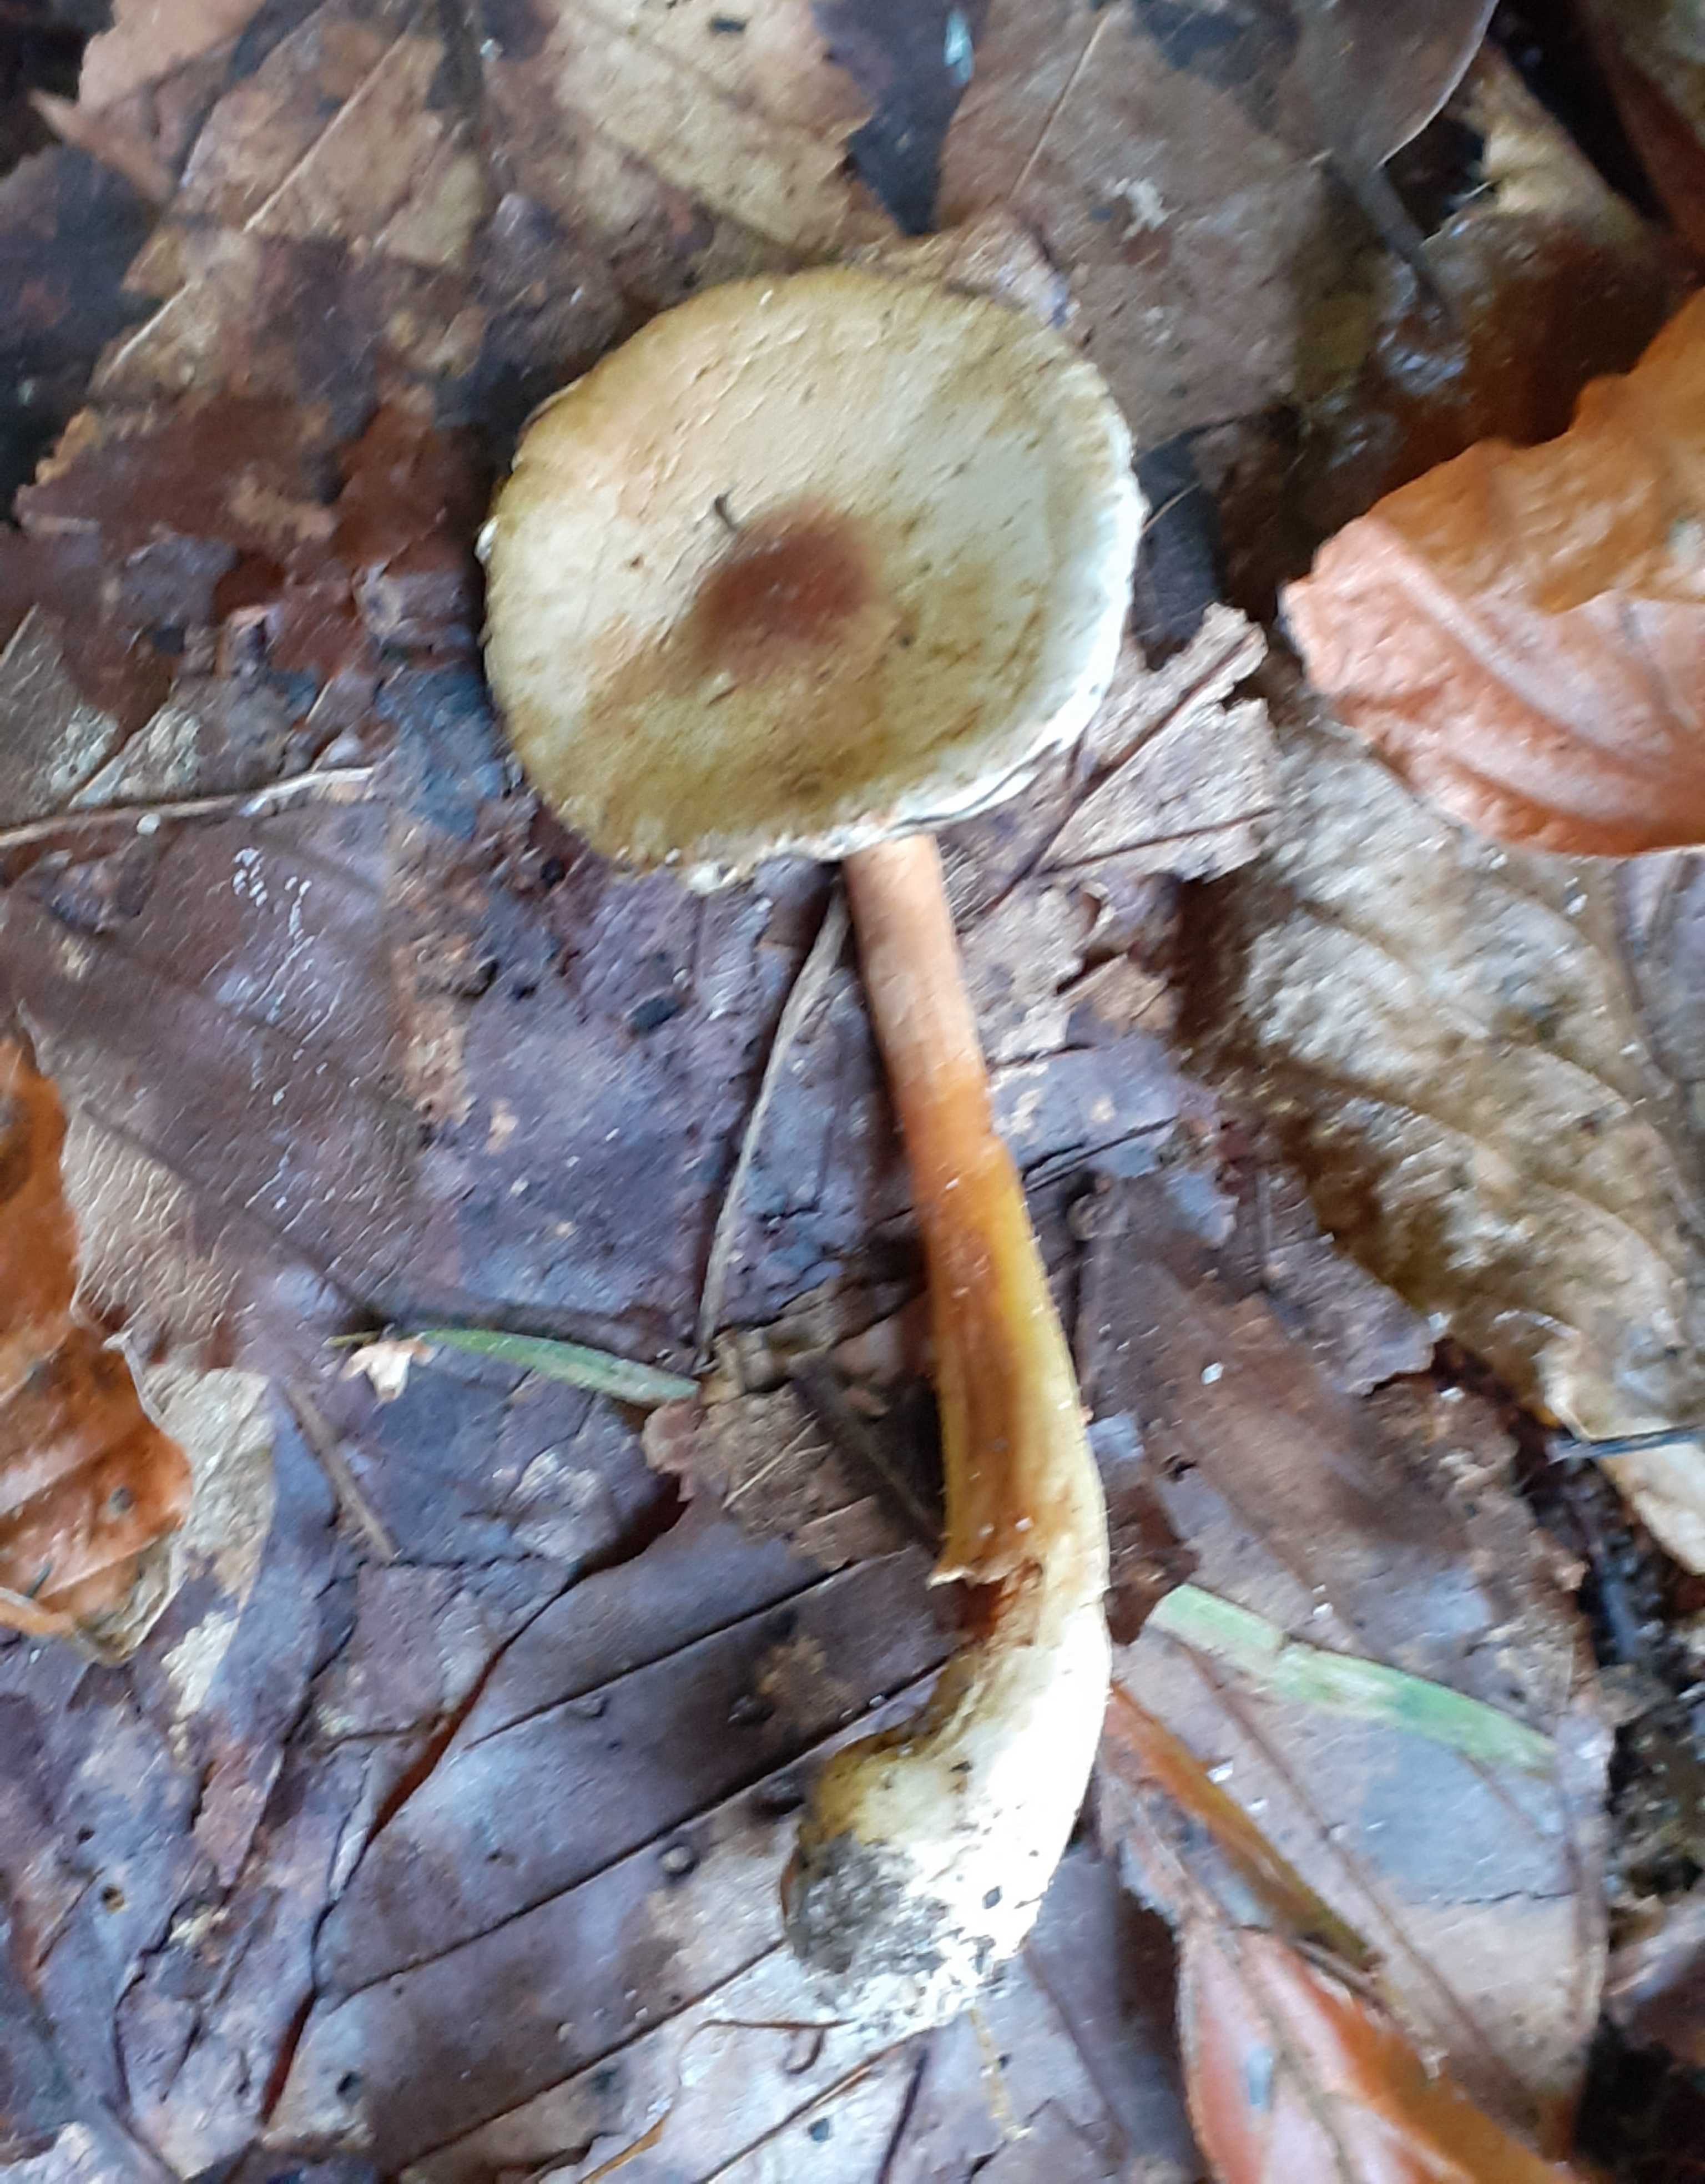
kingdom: Fungi
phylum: Basidiomycota
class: Agaricomycetes
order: Agaricales
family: Agaricaceae
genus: Agaricus
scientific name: Agaricus
